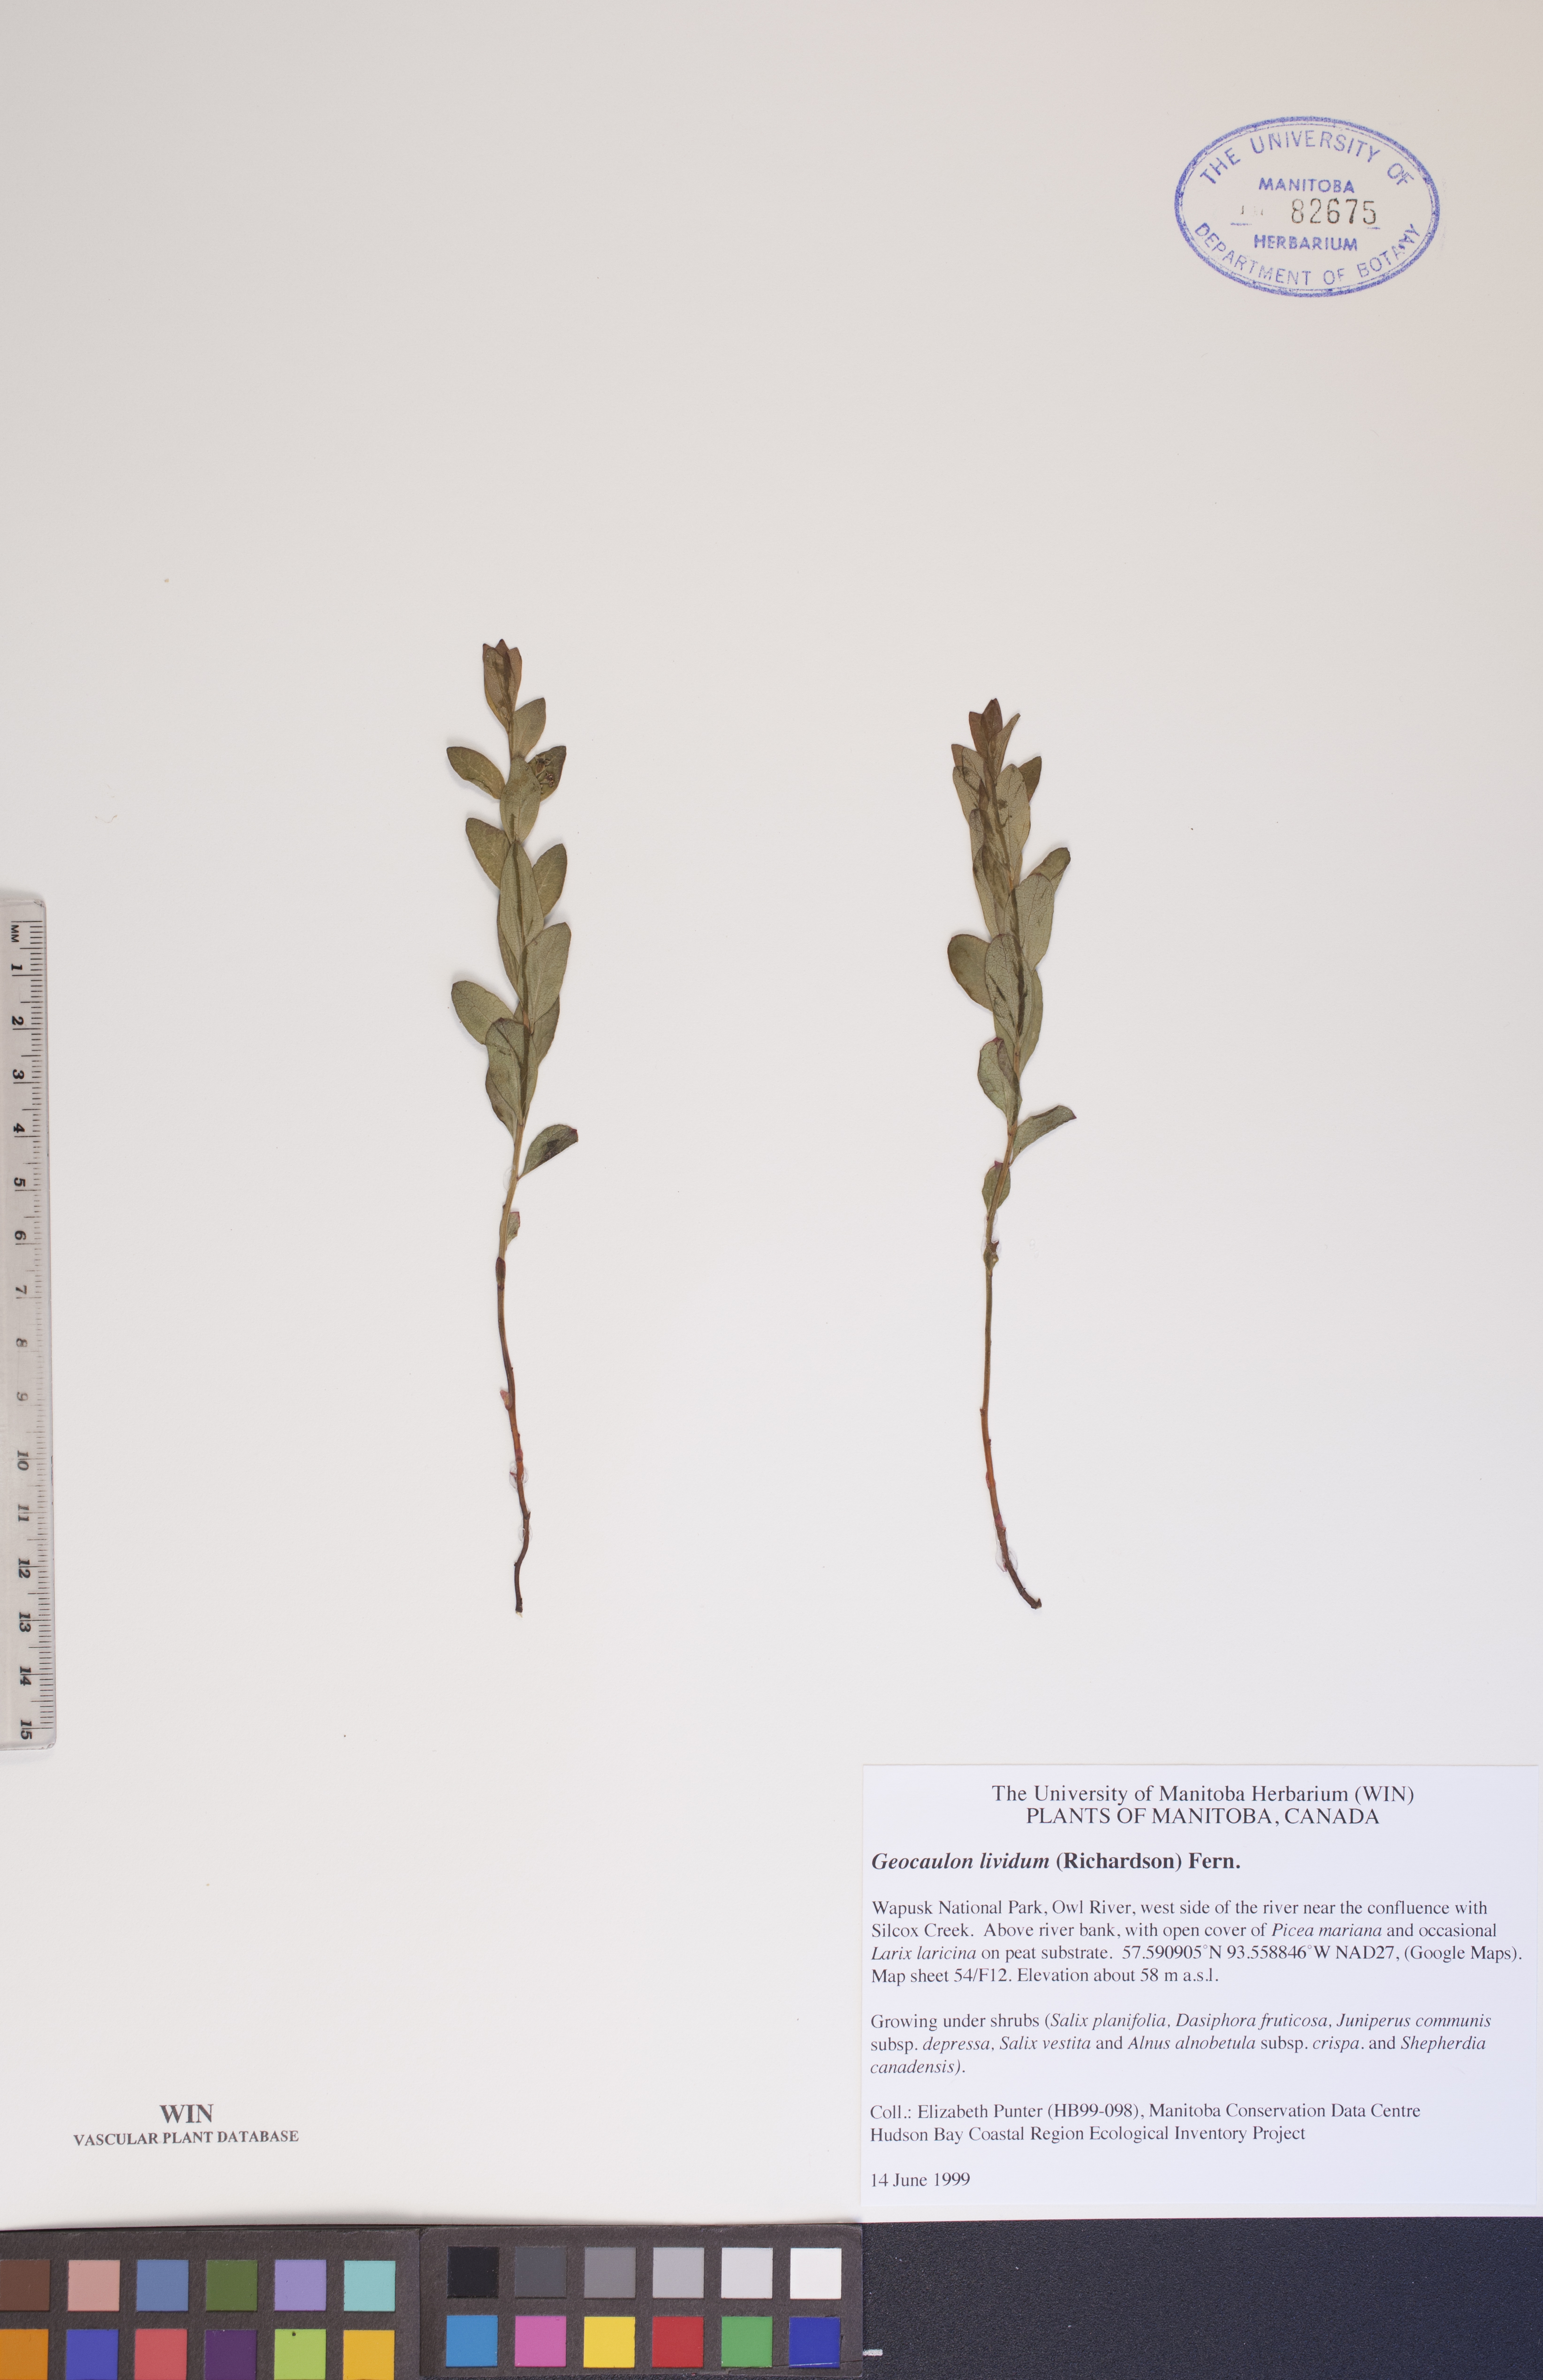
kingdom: Plantae
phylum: Tracheophyta
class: Magnoliopsida
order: Santalales
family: Comandraceae
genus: Geocaulon
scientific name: Geocaulon lividum
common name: Earthberry
